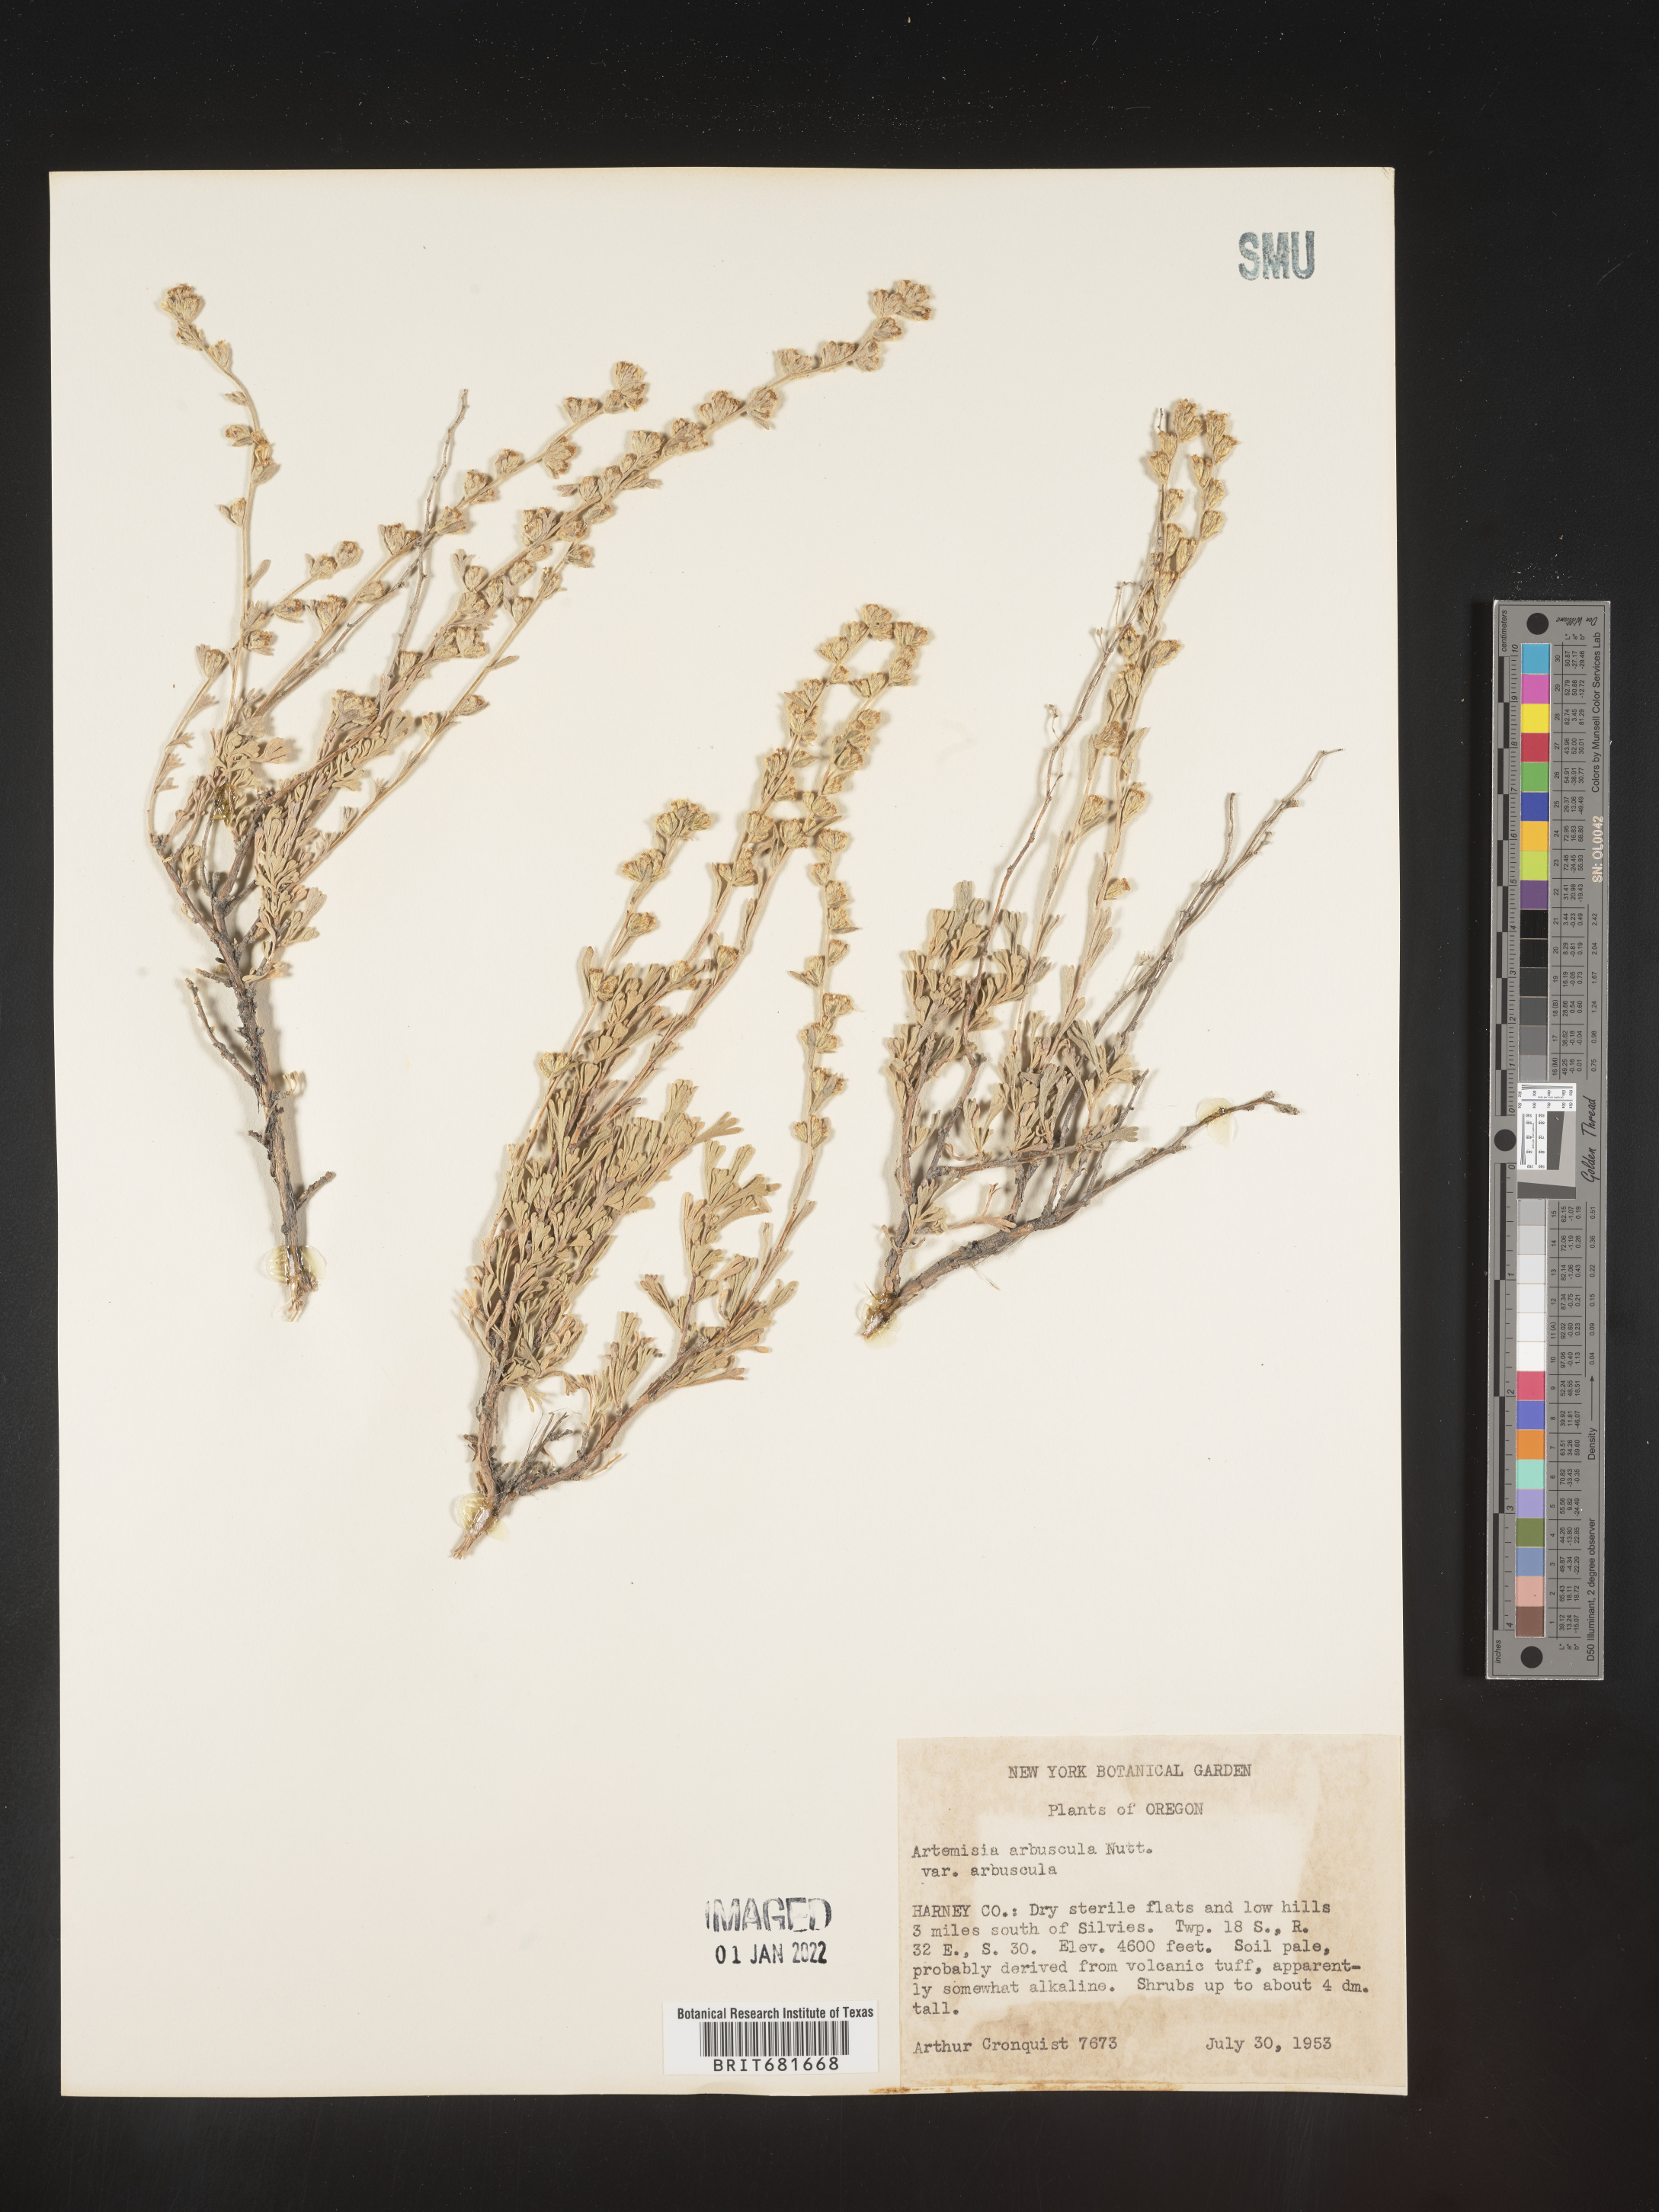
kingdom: Plantae
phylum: Tracheophyta
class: Magnoliopsida
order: Asterales
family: Asteraceae
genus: Artemisia
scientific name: Artemisia arbuscula
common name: Sagebrush
